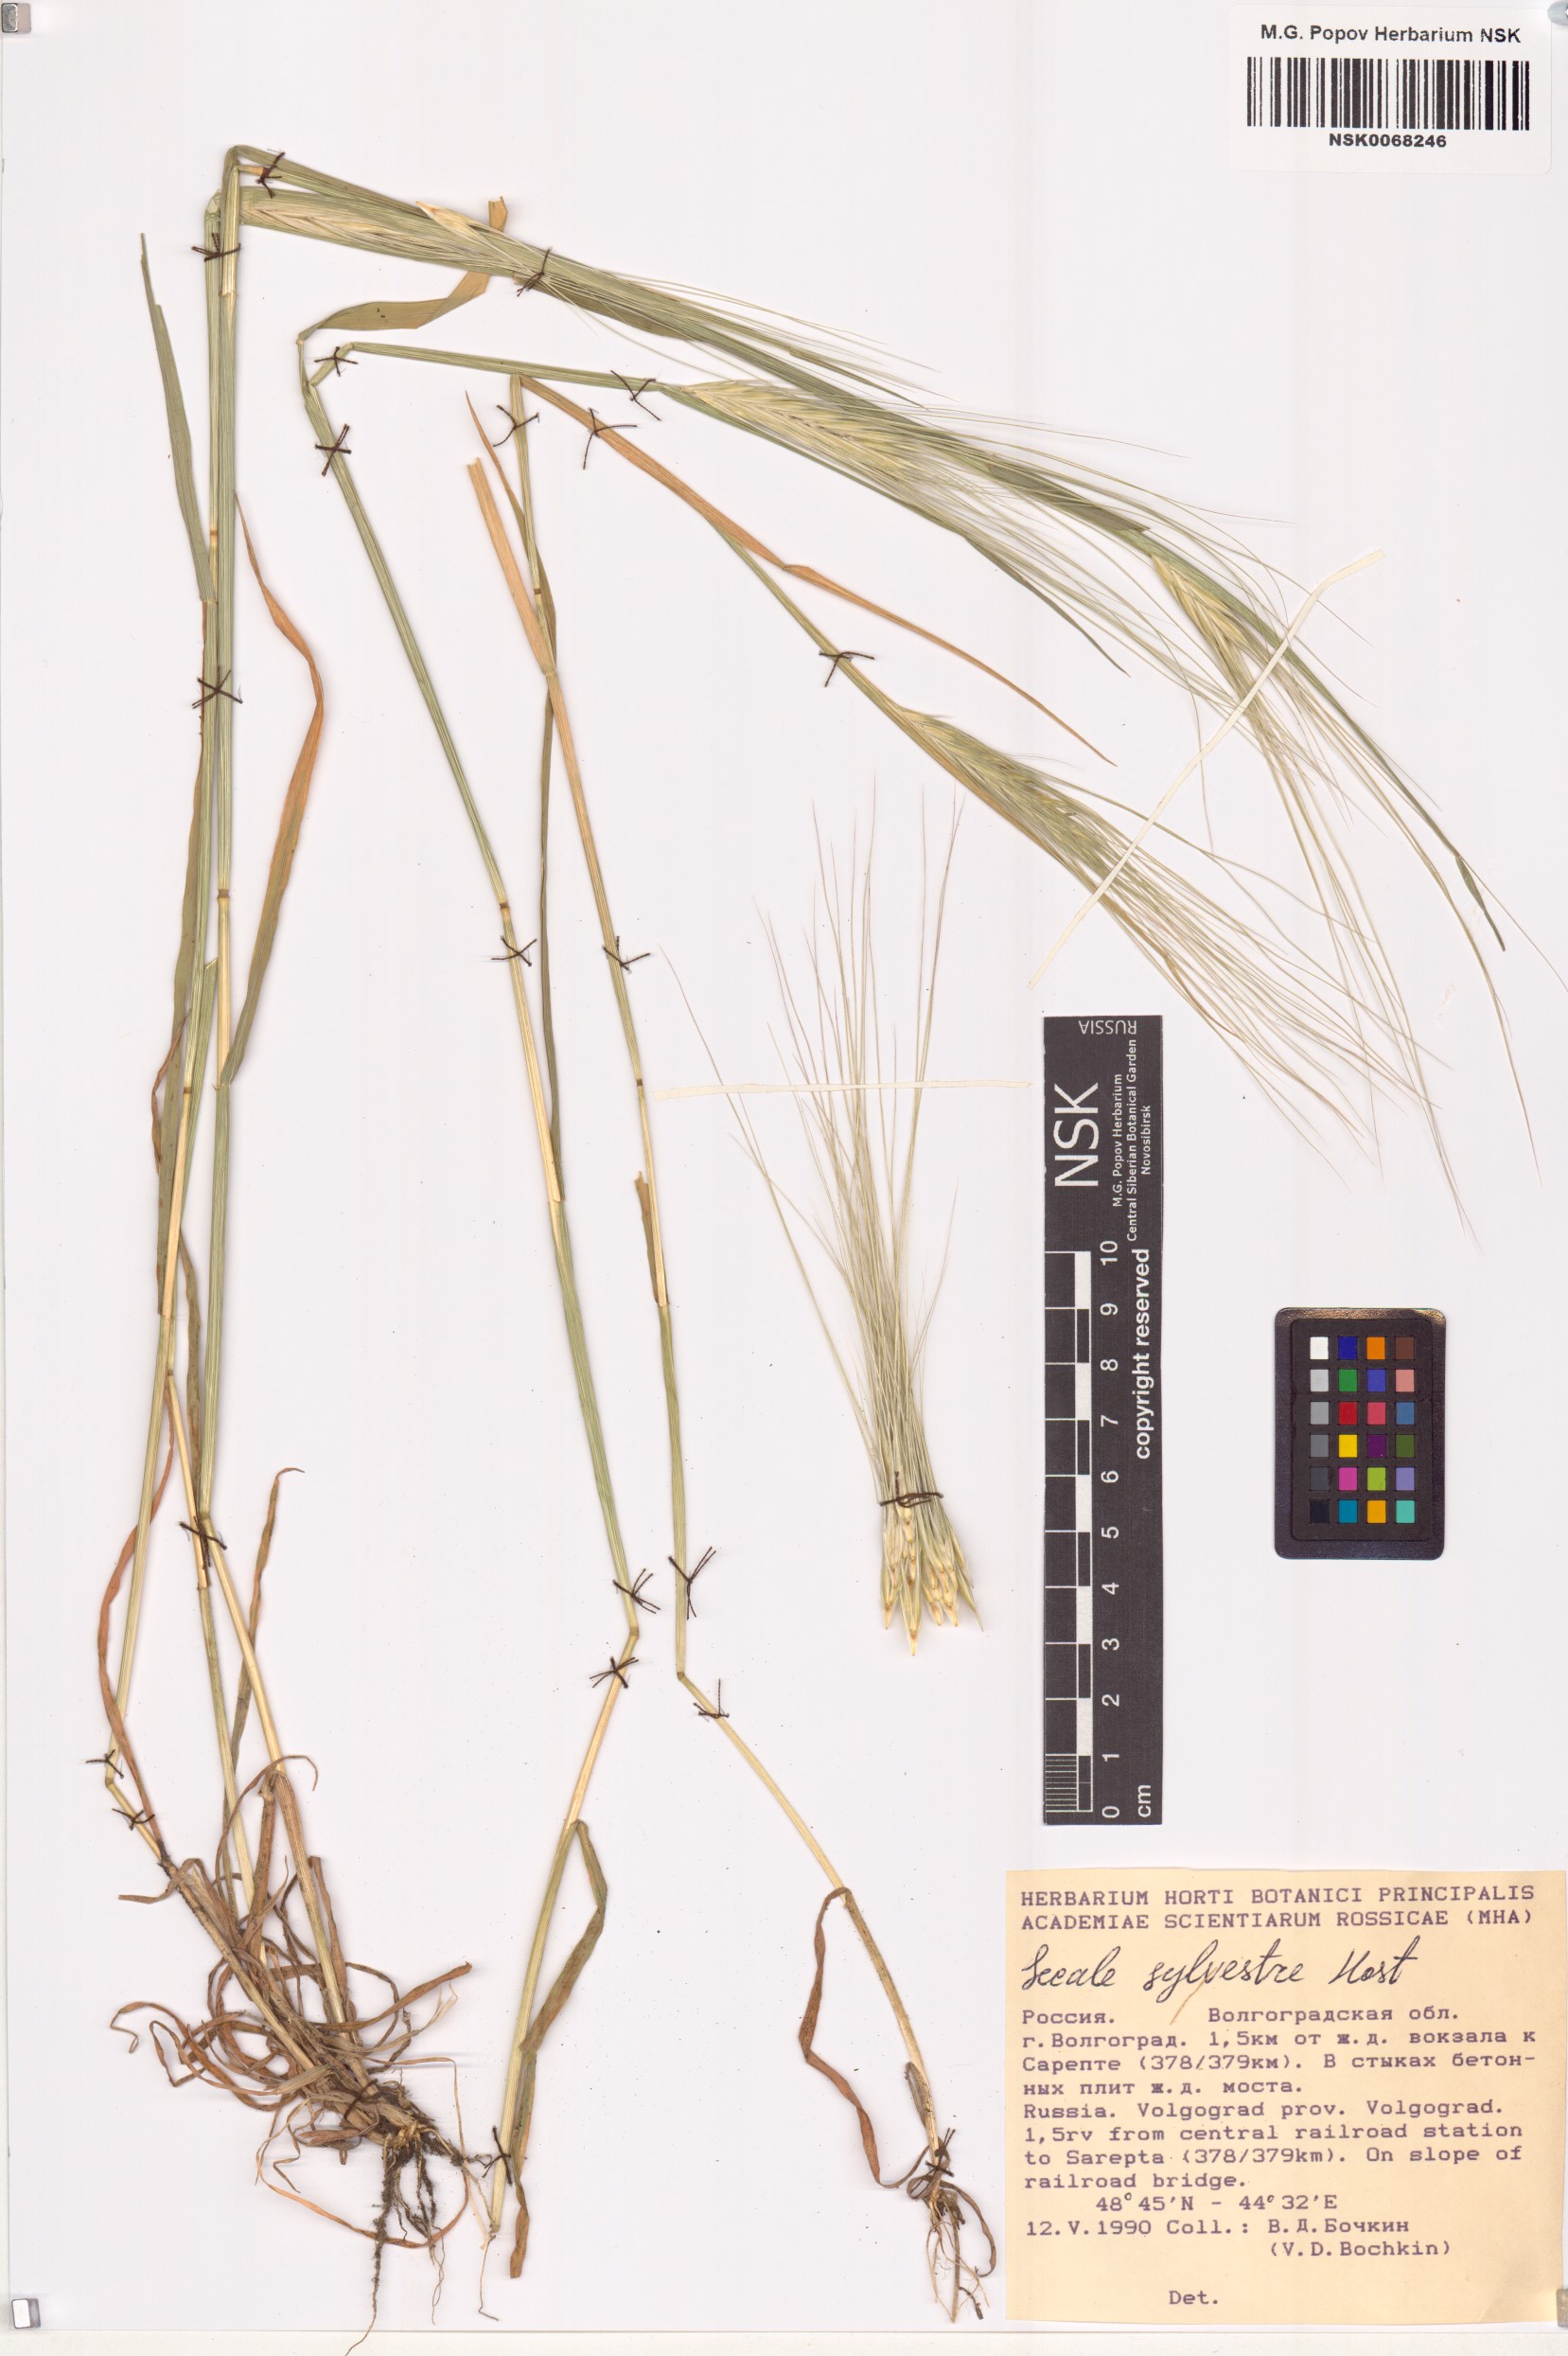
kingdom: Plantae
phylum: Tracheophyta
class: Liliopsida
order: Poales
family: Poaceae
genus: Secale
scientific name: Secale sylvestre
